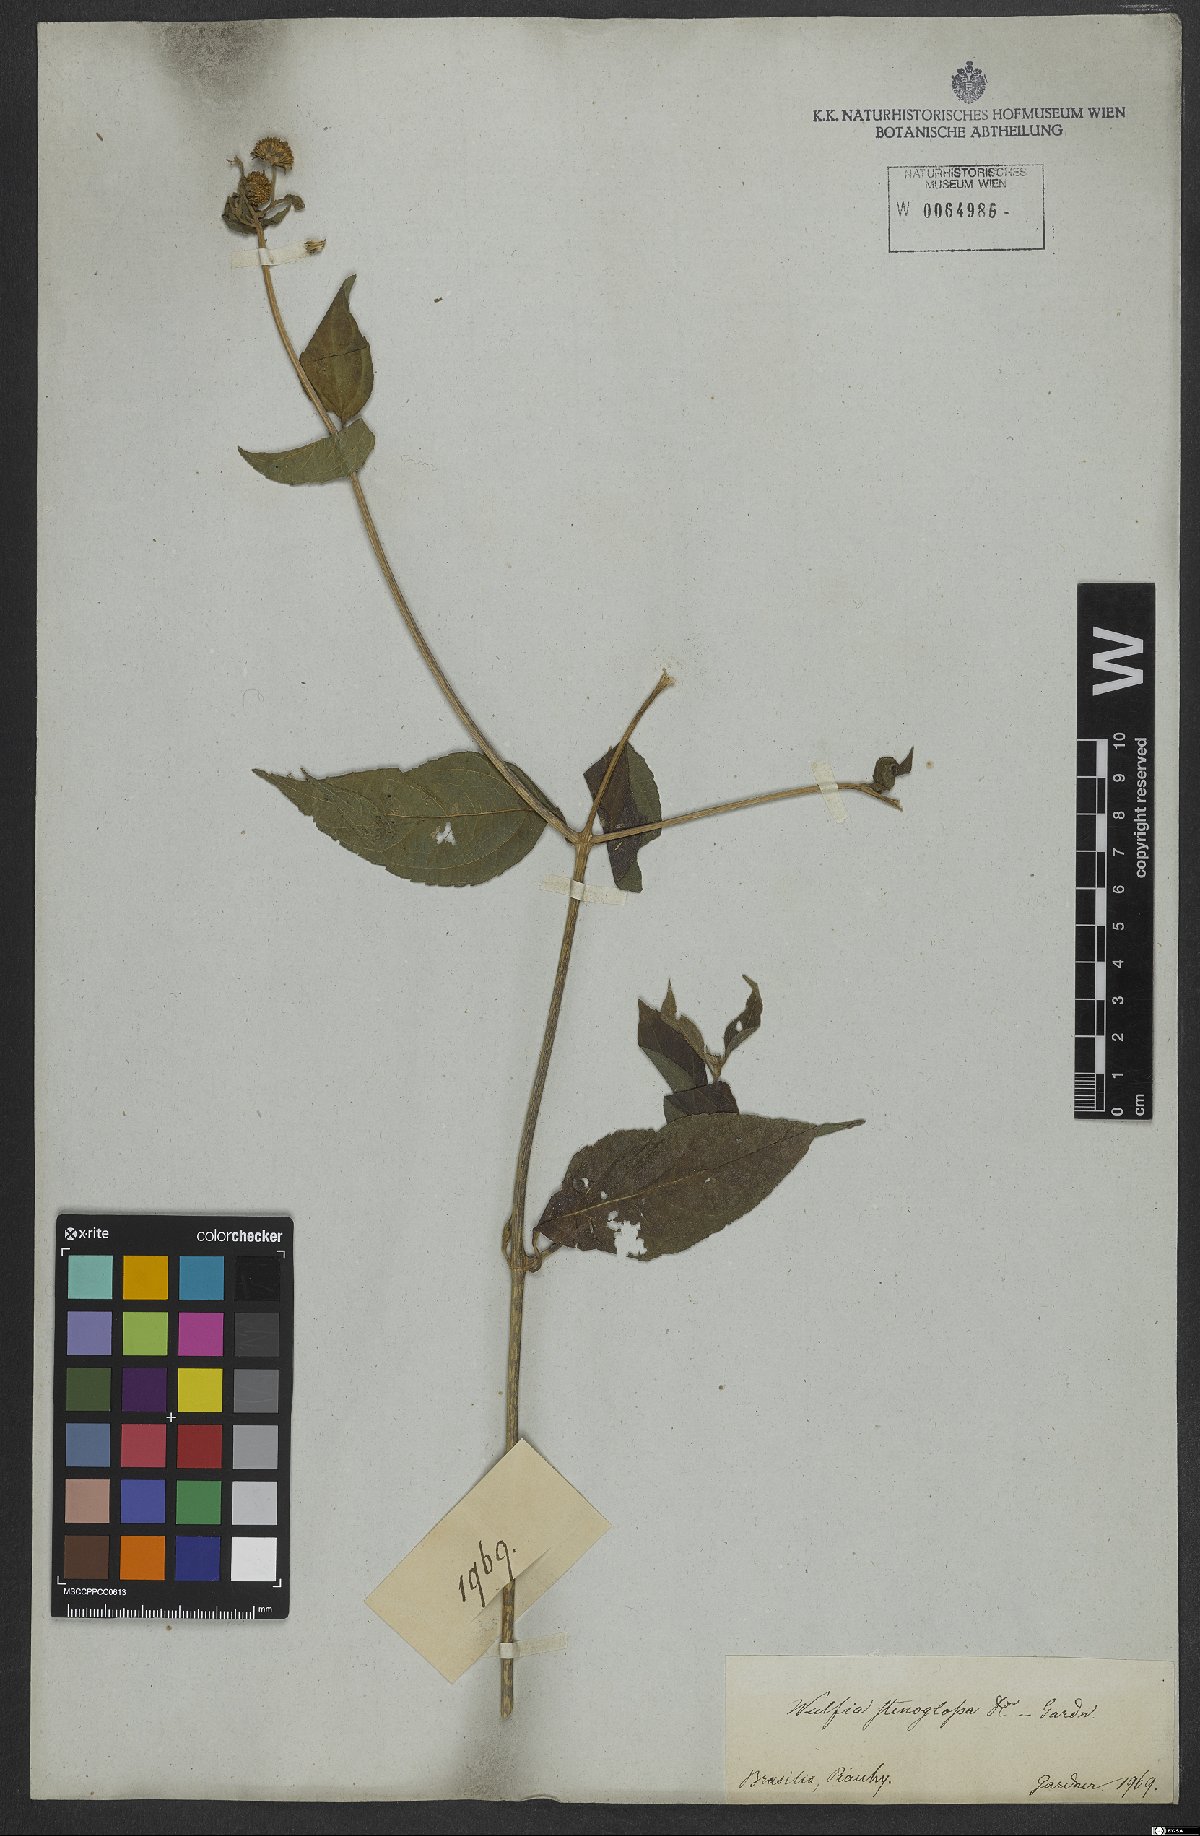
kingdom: Plantae
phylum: Tracheophyta
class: Magnoliopsida
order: Asterales
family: Asteraceae
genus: Tilesia
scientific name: Tilesia baccata
